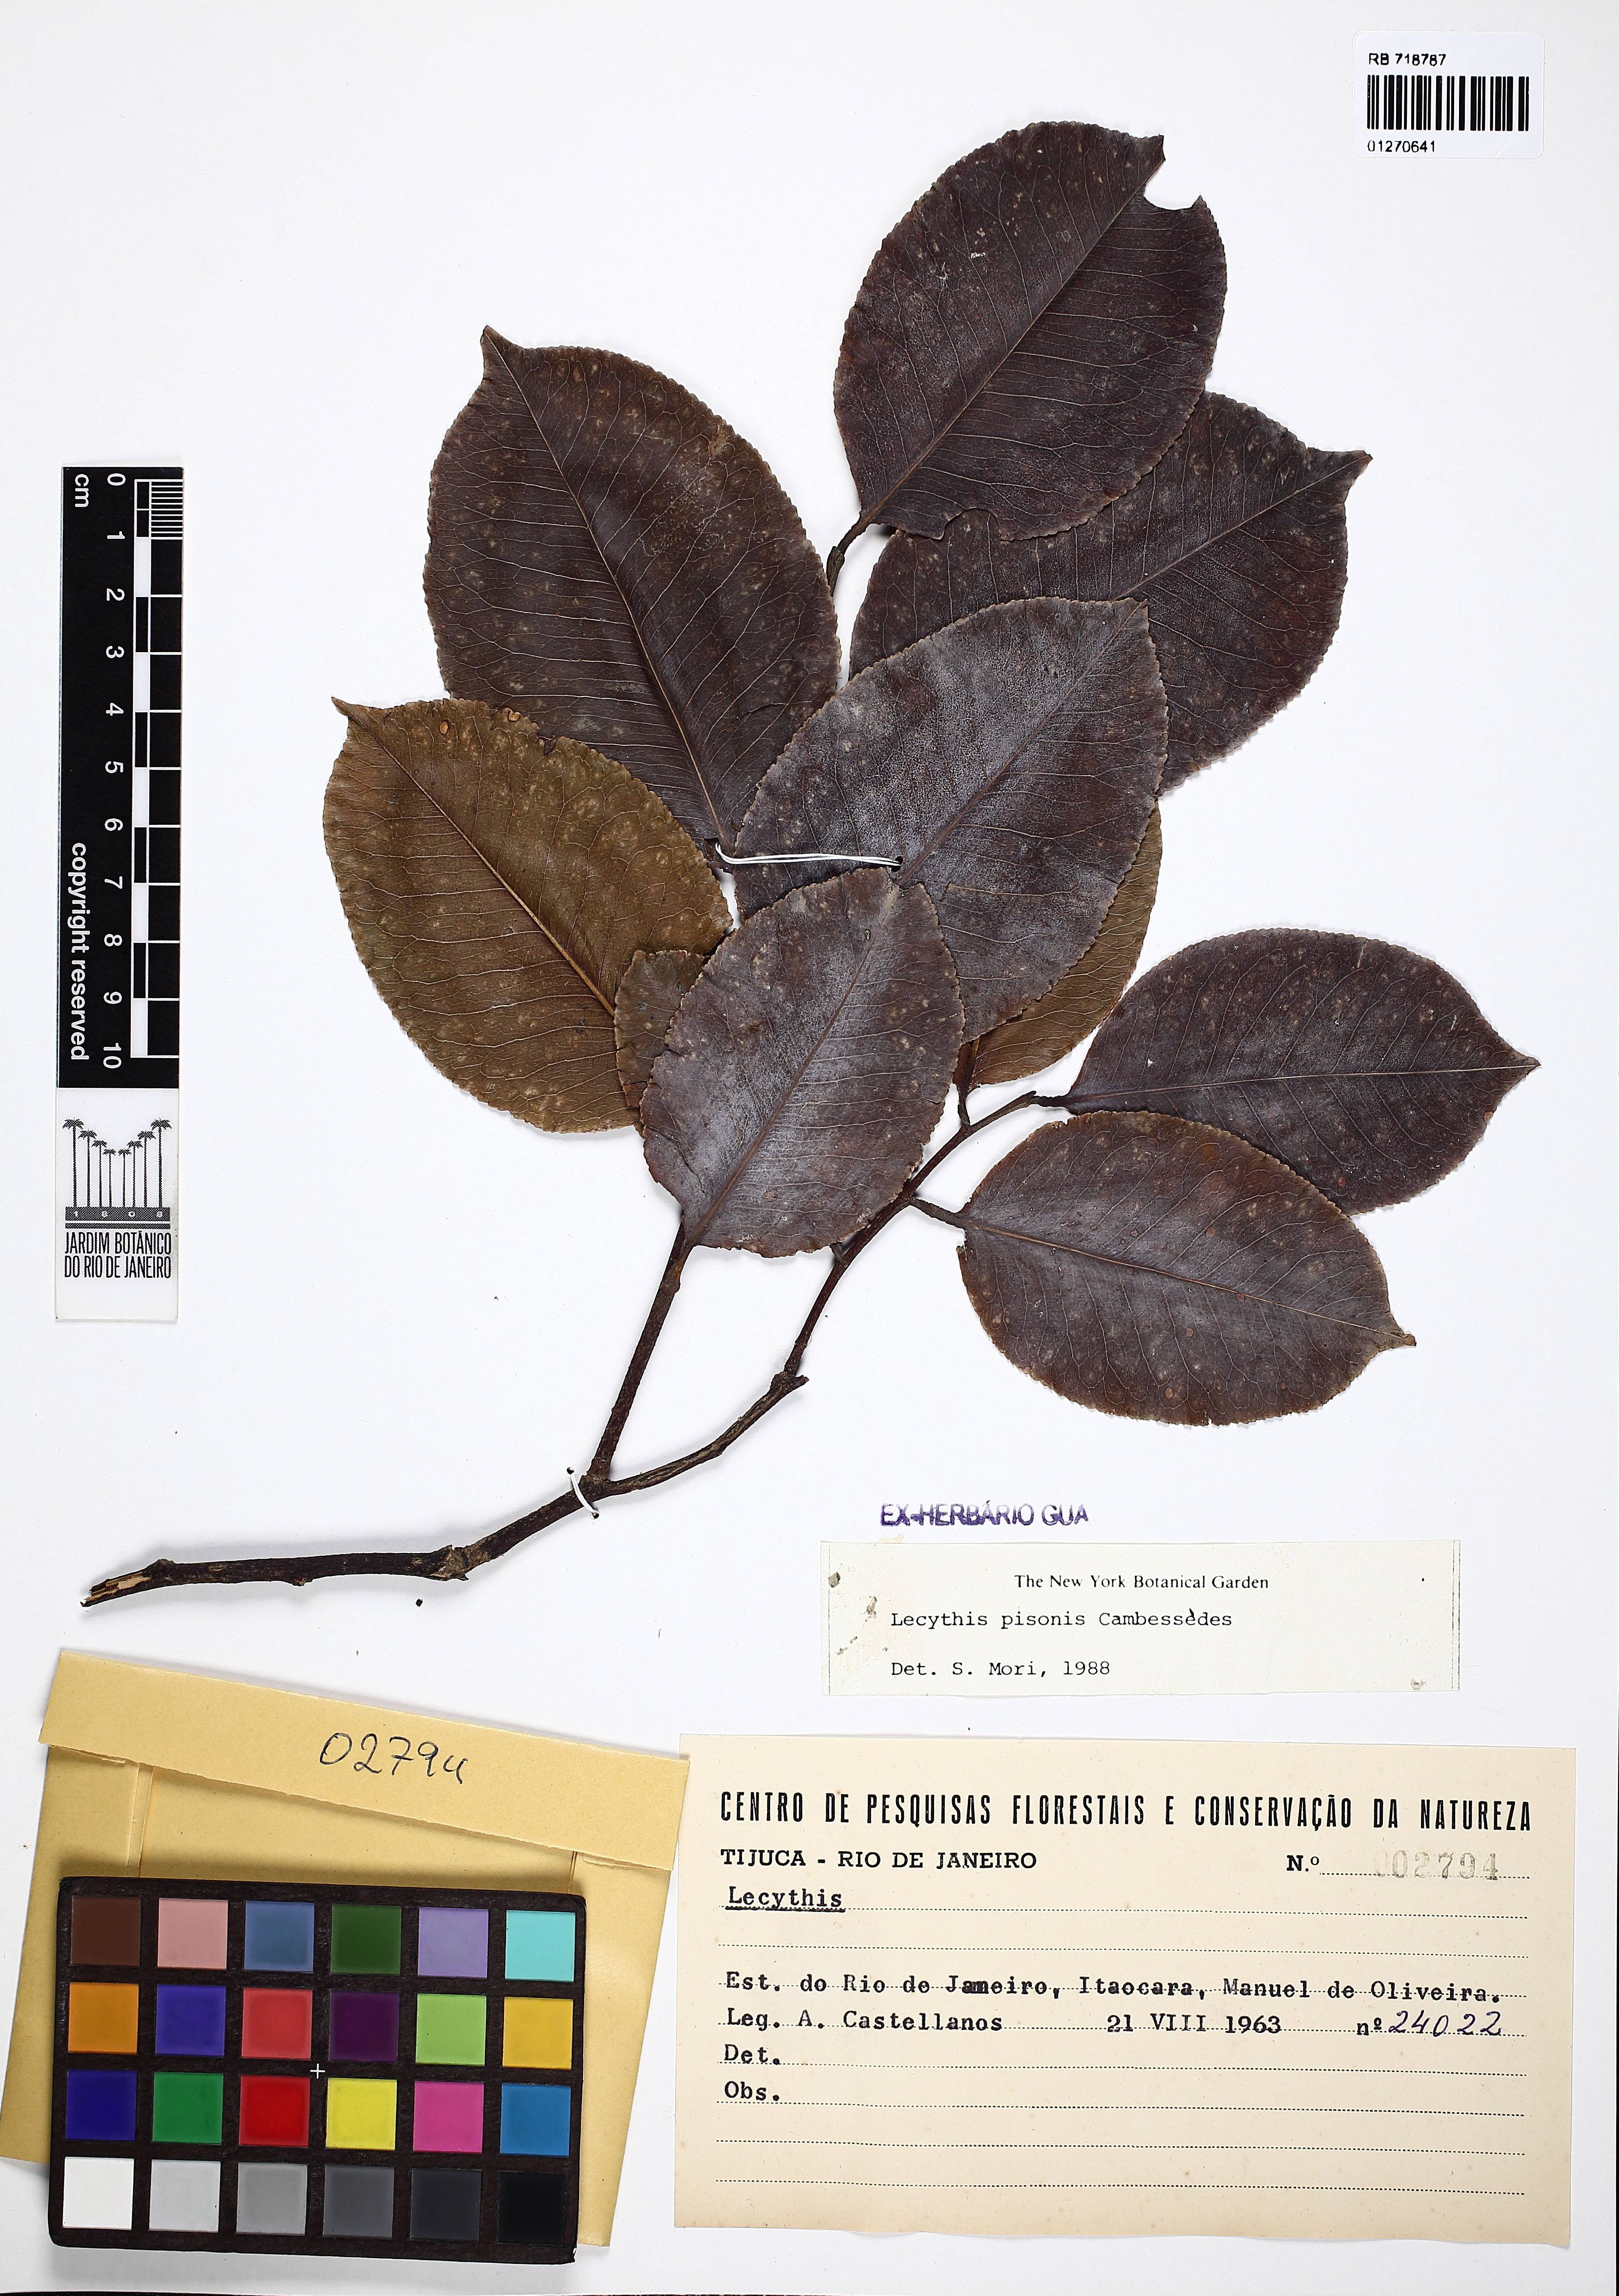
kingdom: Plantae
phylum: Tracheophyta
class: Magnoliopsida
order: Ericales
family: Lecythidaceae
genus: Lecythis
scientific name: Lecythis pisonis
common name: Paradise-nut
